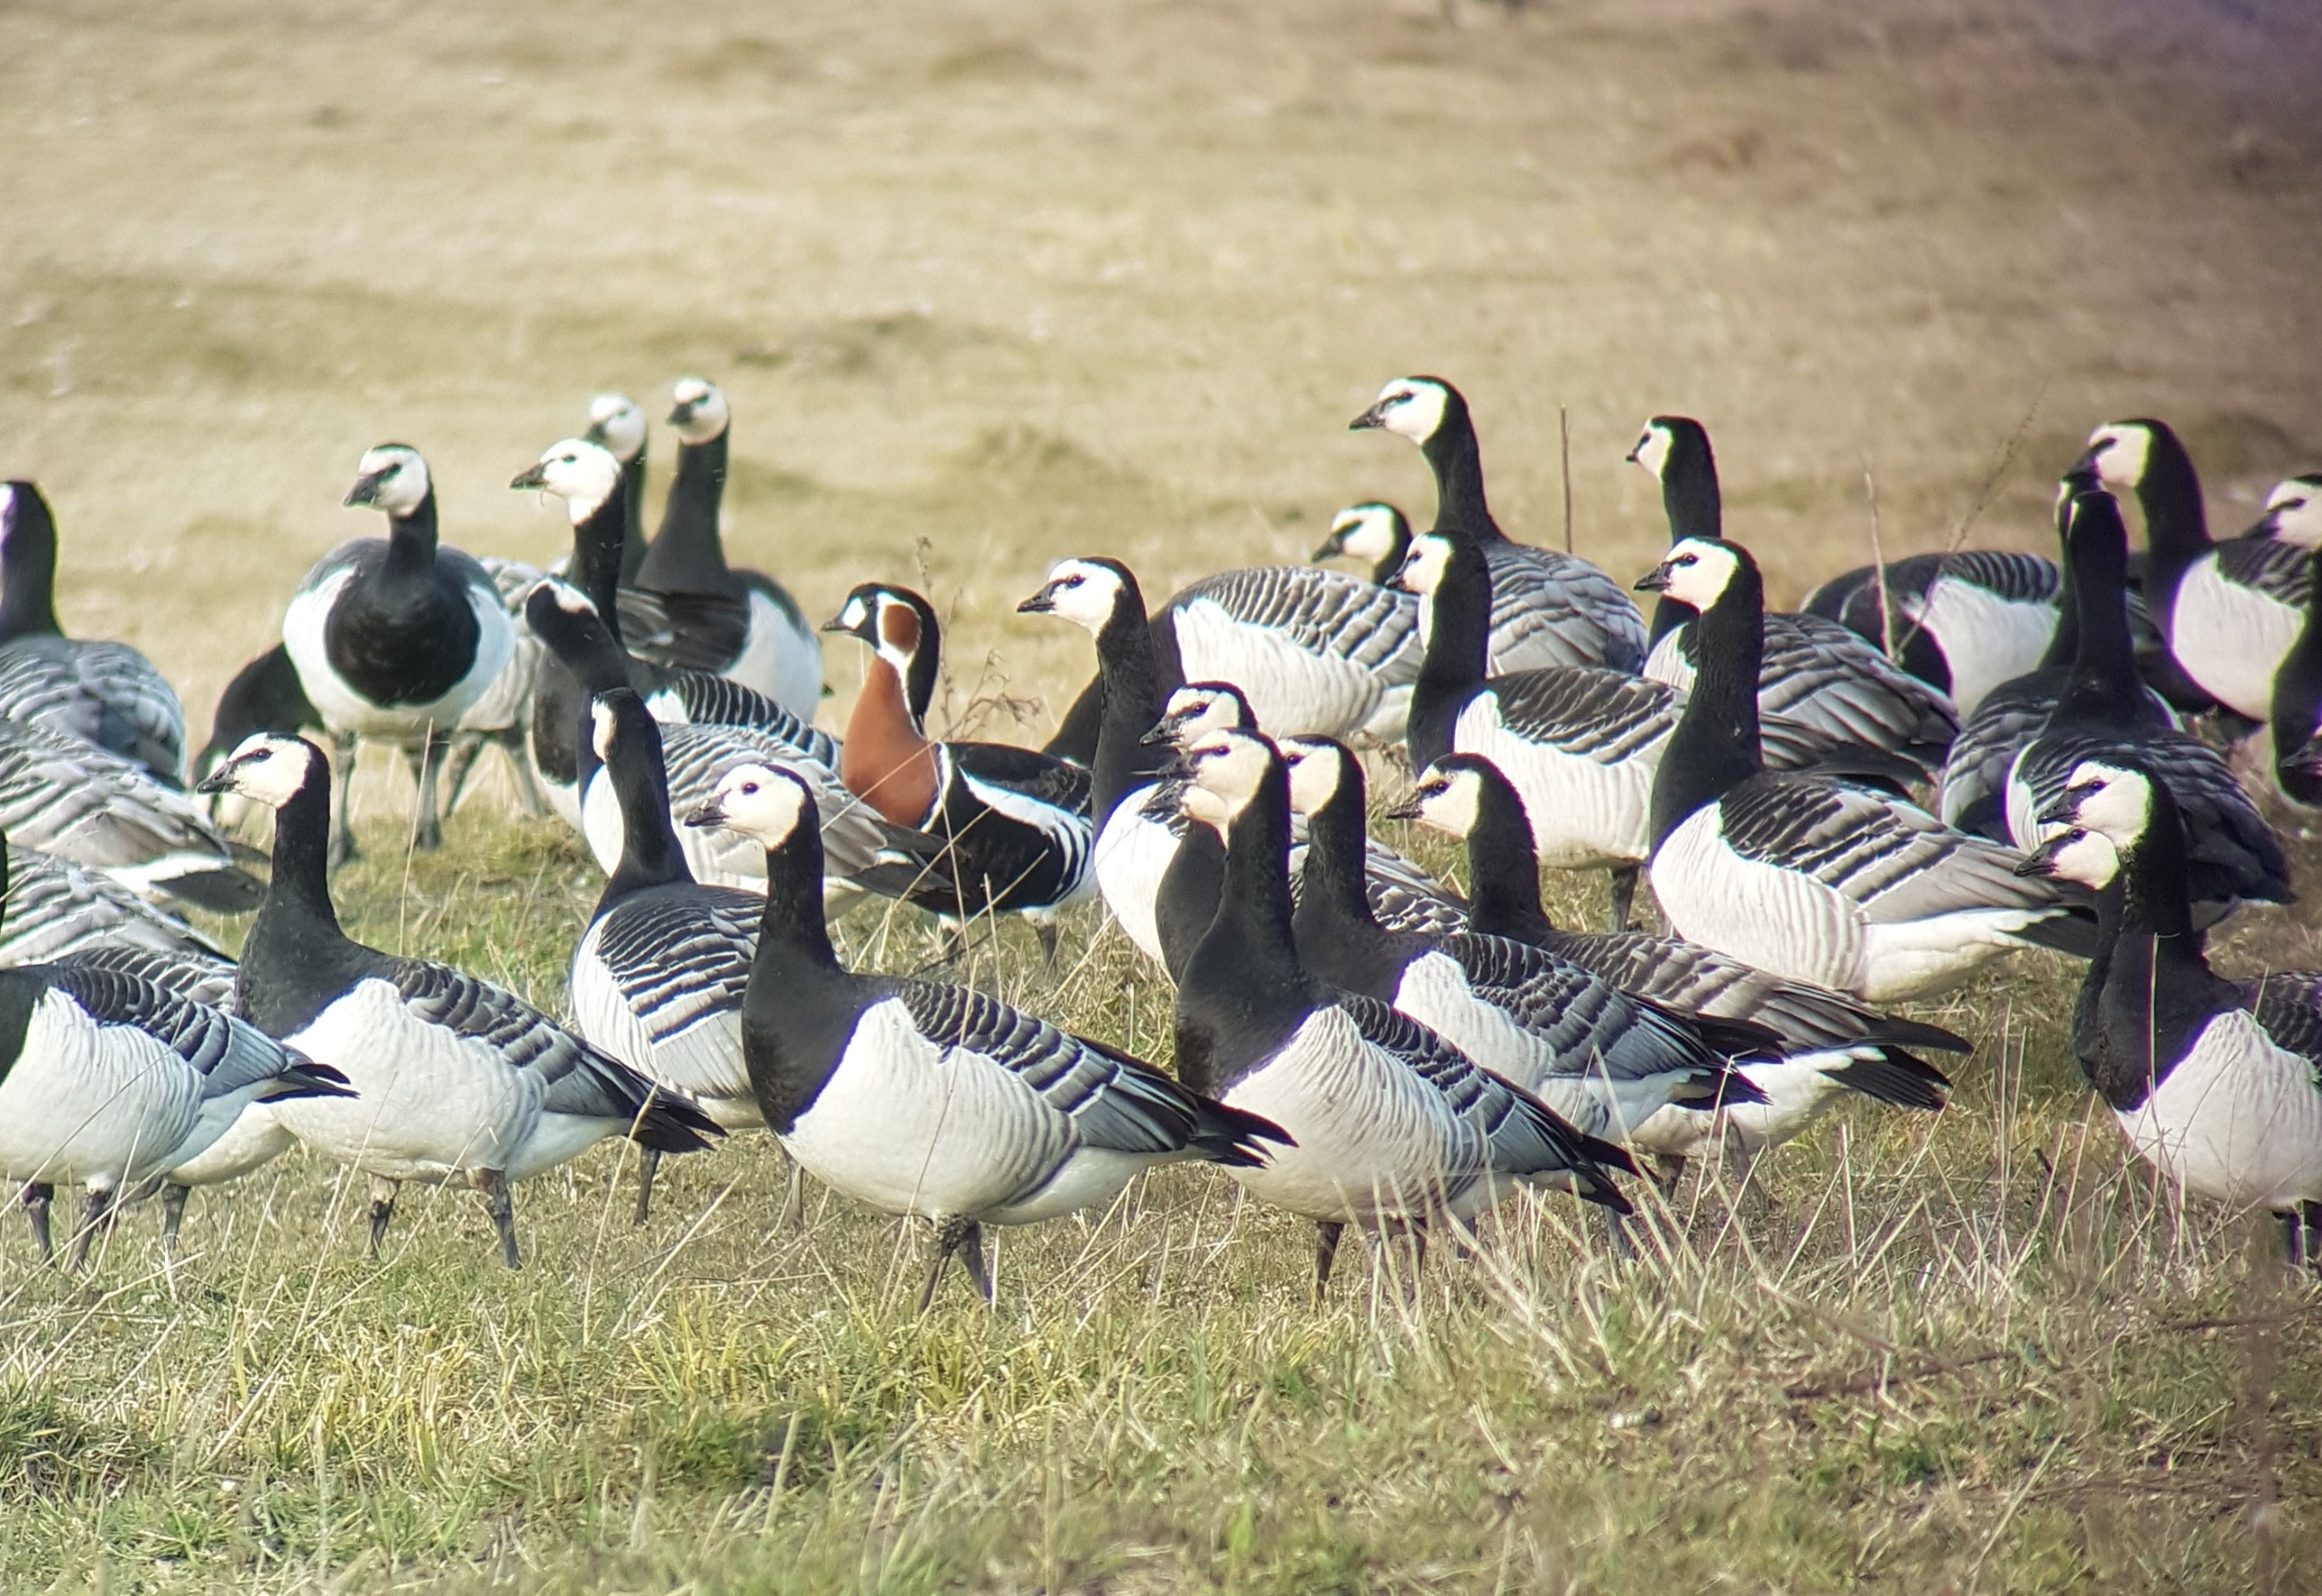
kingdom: Animalia
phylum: Chordata
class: Aves
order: Anseriformes
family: Anatidae
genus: Branta
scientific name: Branta ruficollis
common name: Rødhalset gås
